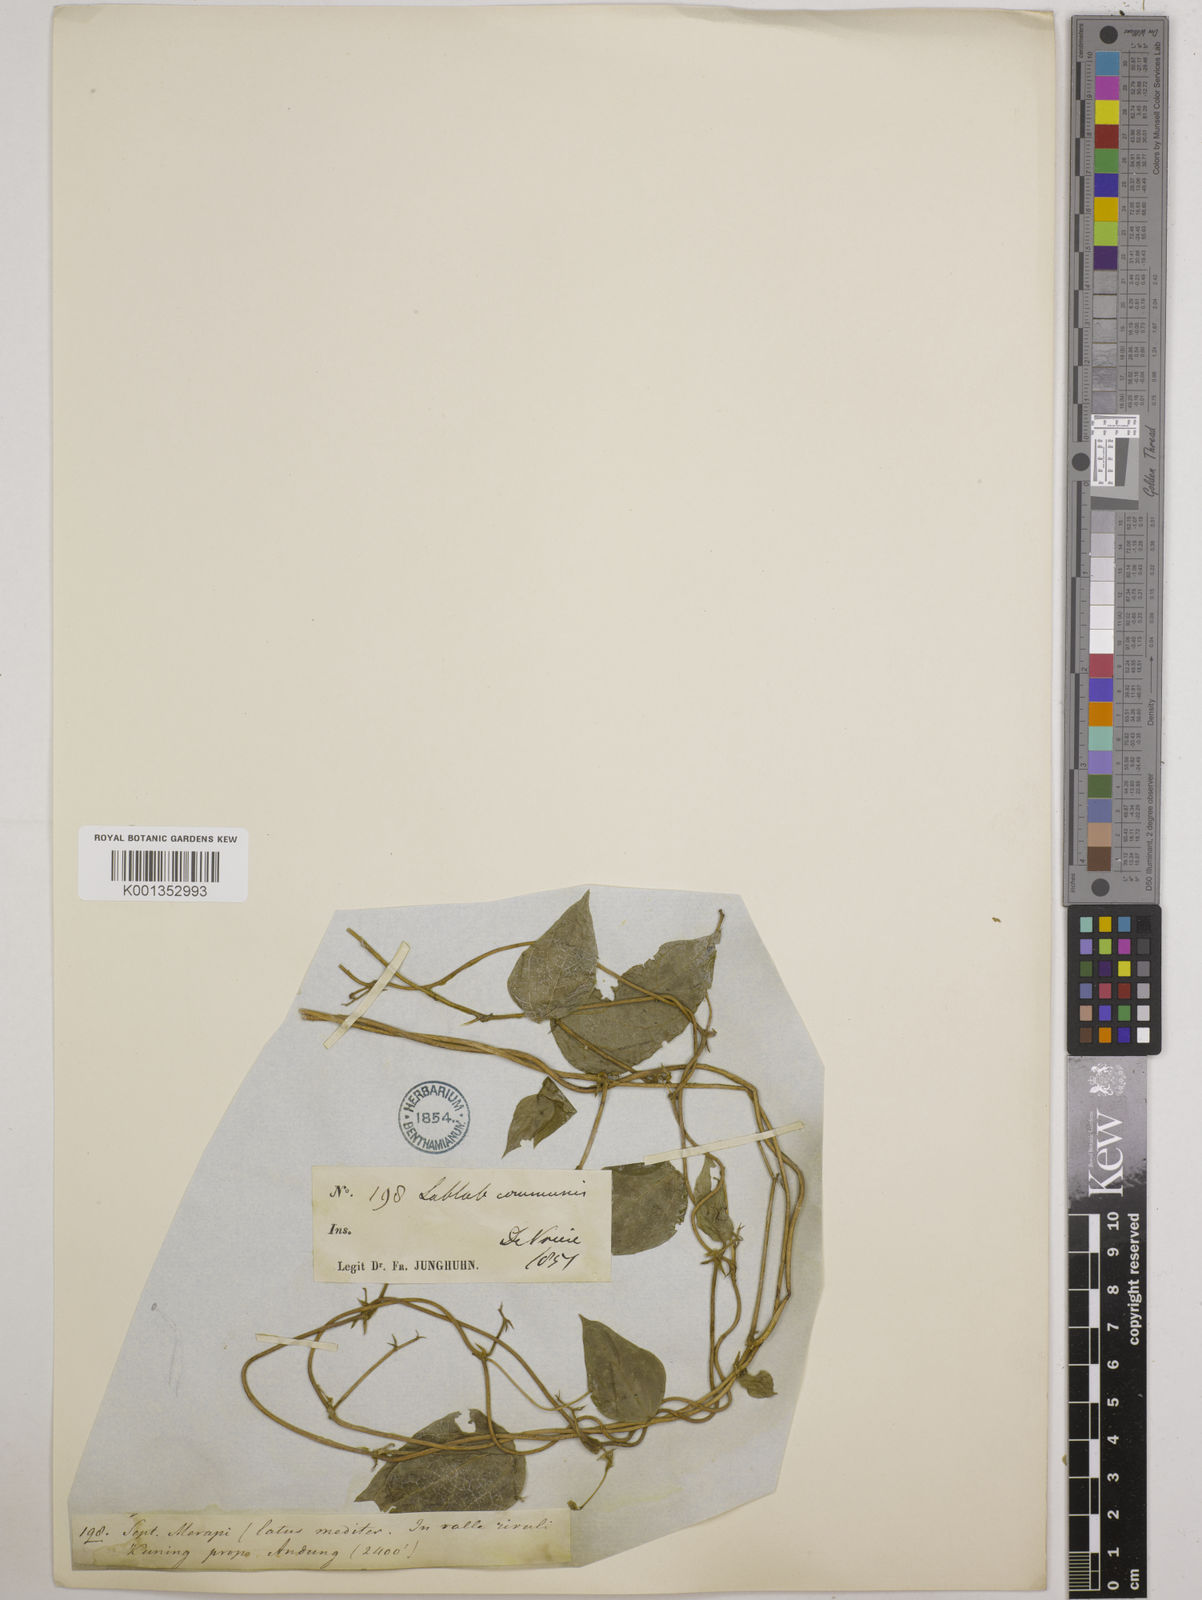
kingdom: Plantae
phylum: Tracheophyta
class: Magnoliopsida
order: Fabales
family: Fabaceae
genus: Lablab
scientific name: Lablab purpureus
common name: Lablab-bean
